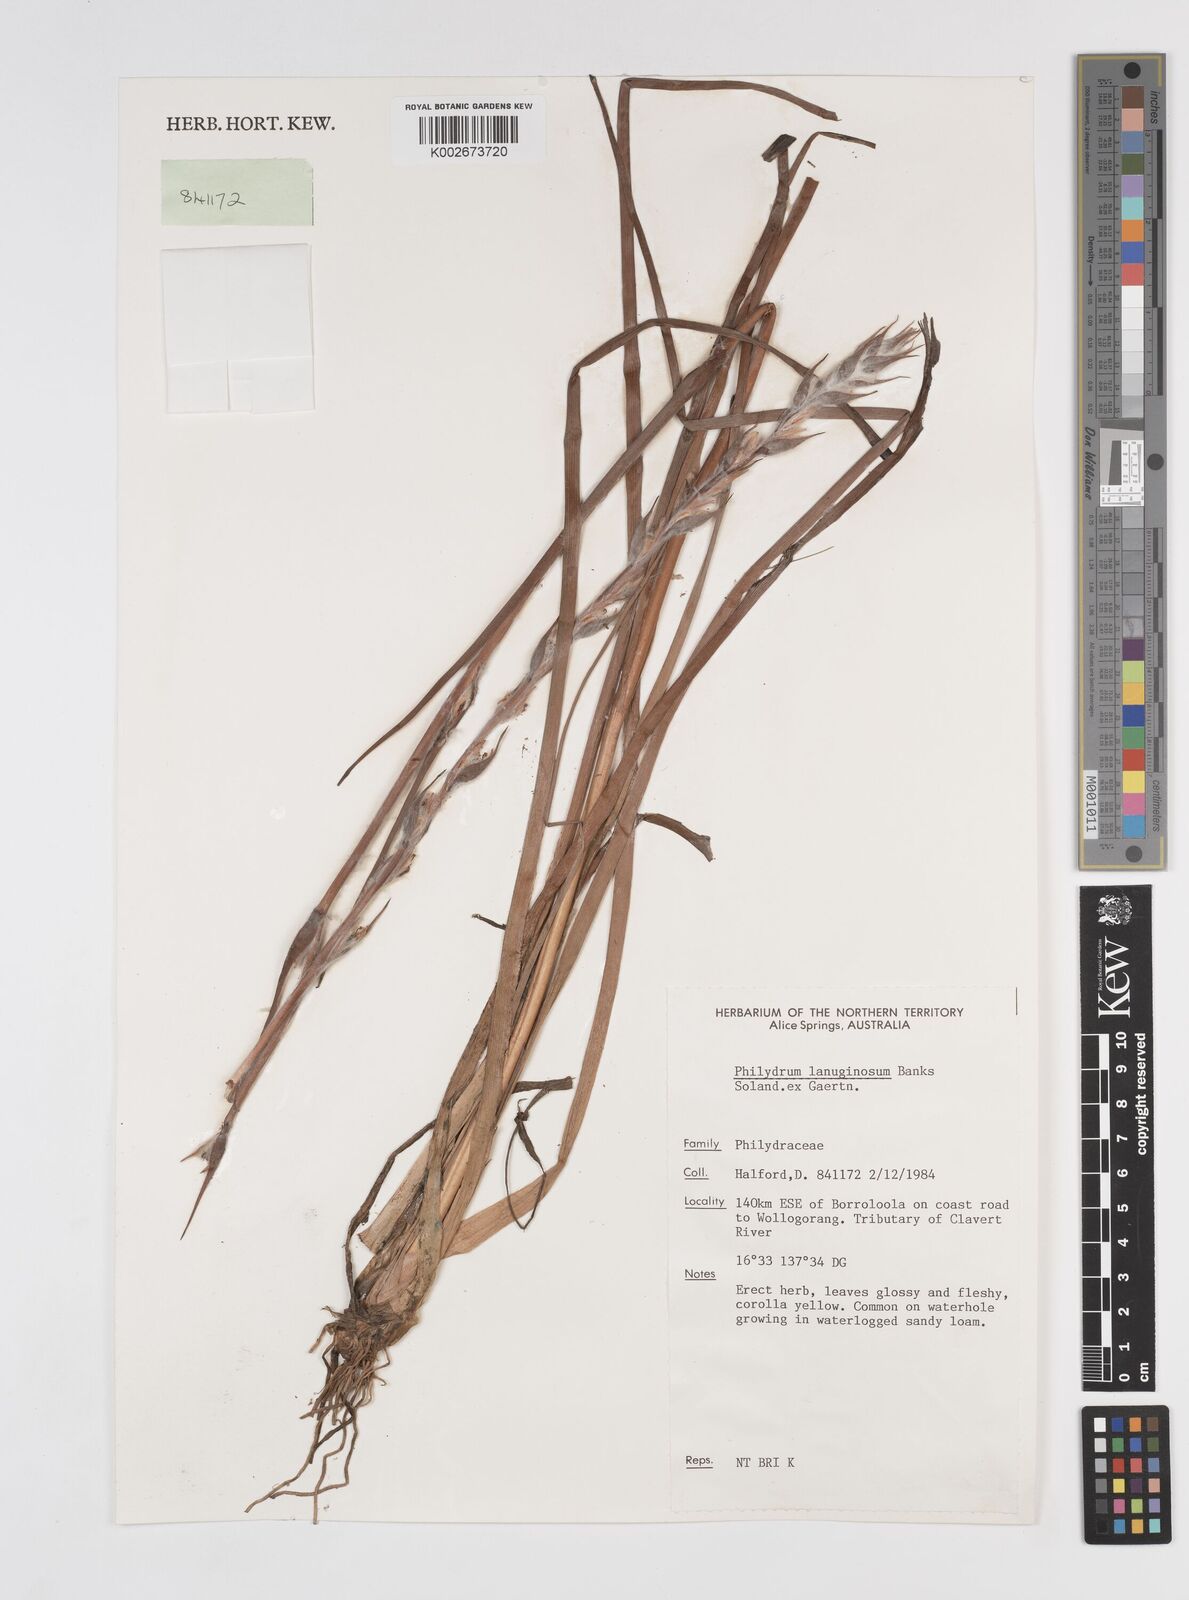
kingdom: Plantae
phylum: Tracheophyta
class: Liliopsida
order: Commelinales
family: Philydraceae
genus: Philydrum
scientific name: Philydrum lanuginosum
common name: Woolly frog's mouth
